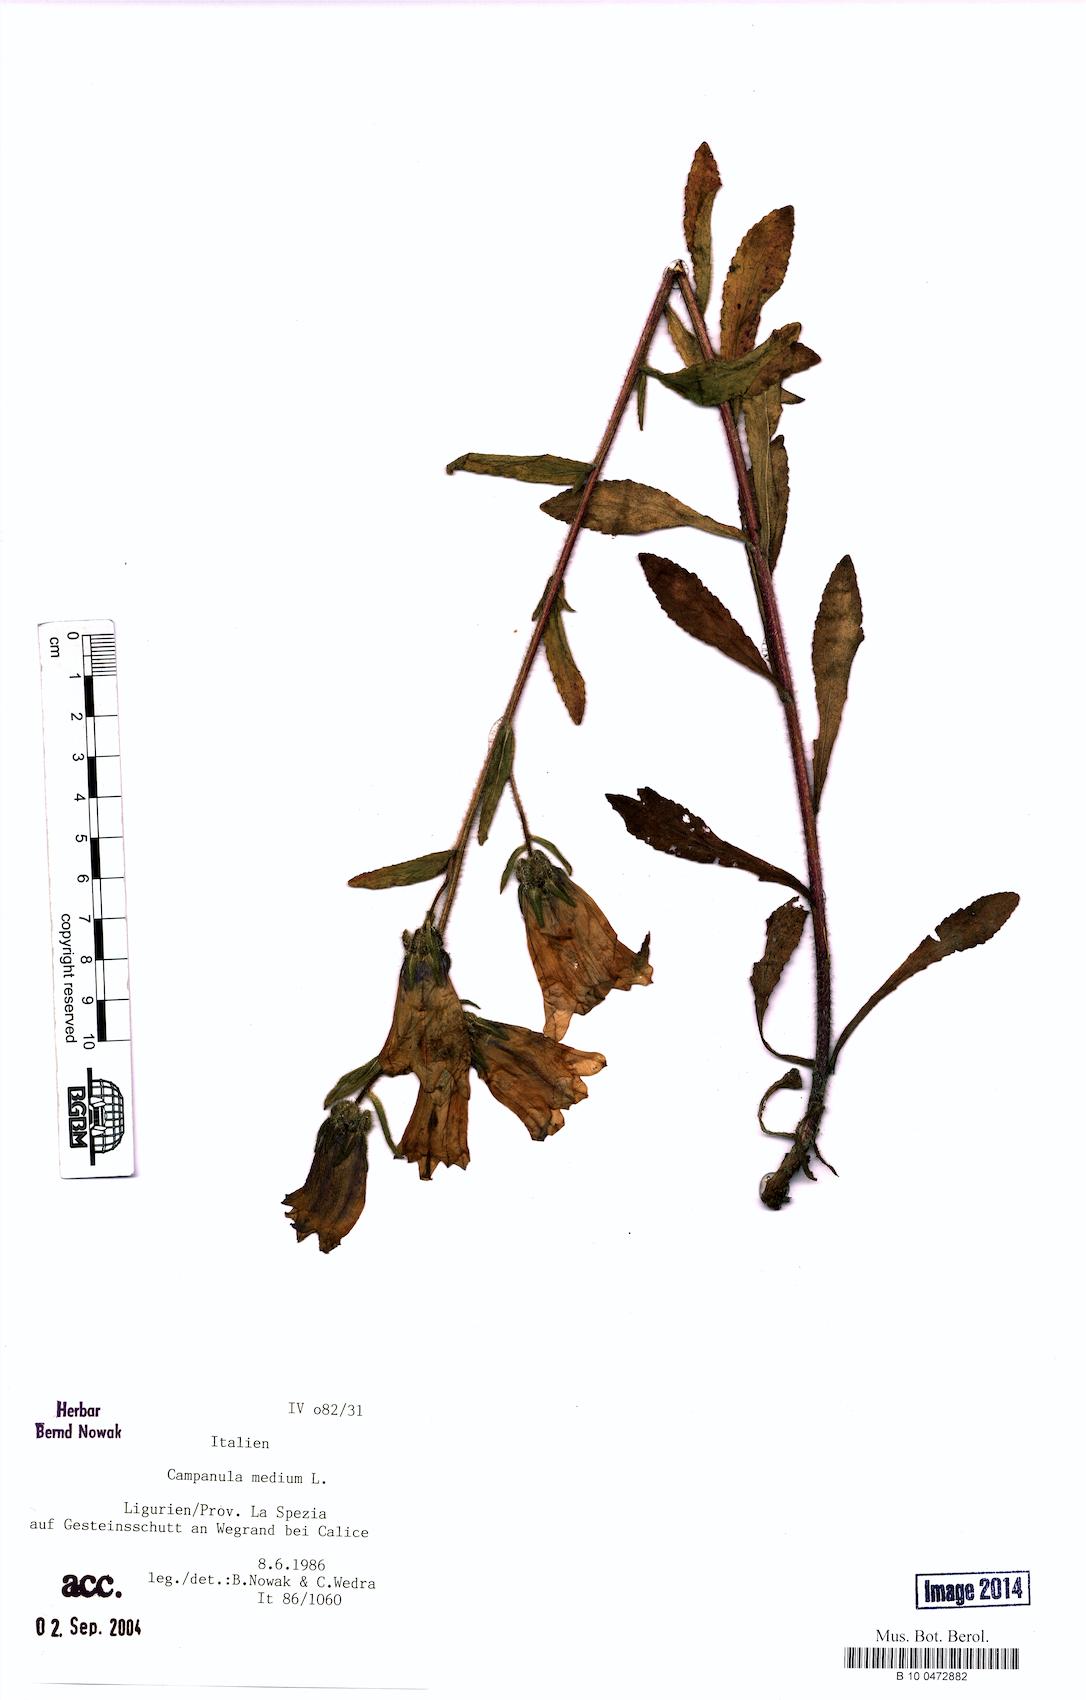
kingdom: Plantae
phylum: Tracheophyta
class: Magnoliopsida
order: Asterales
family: Campanulaceae
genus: Campanula
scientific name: Campanula medium
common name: Canterbury bells
